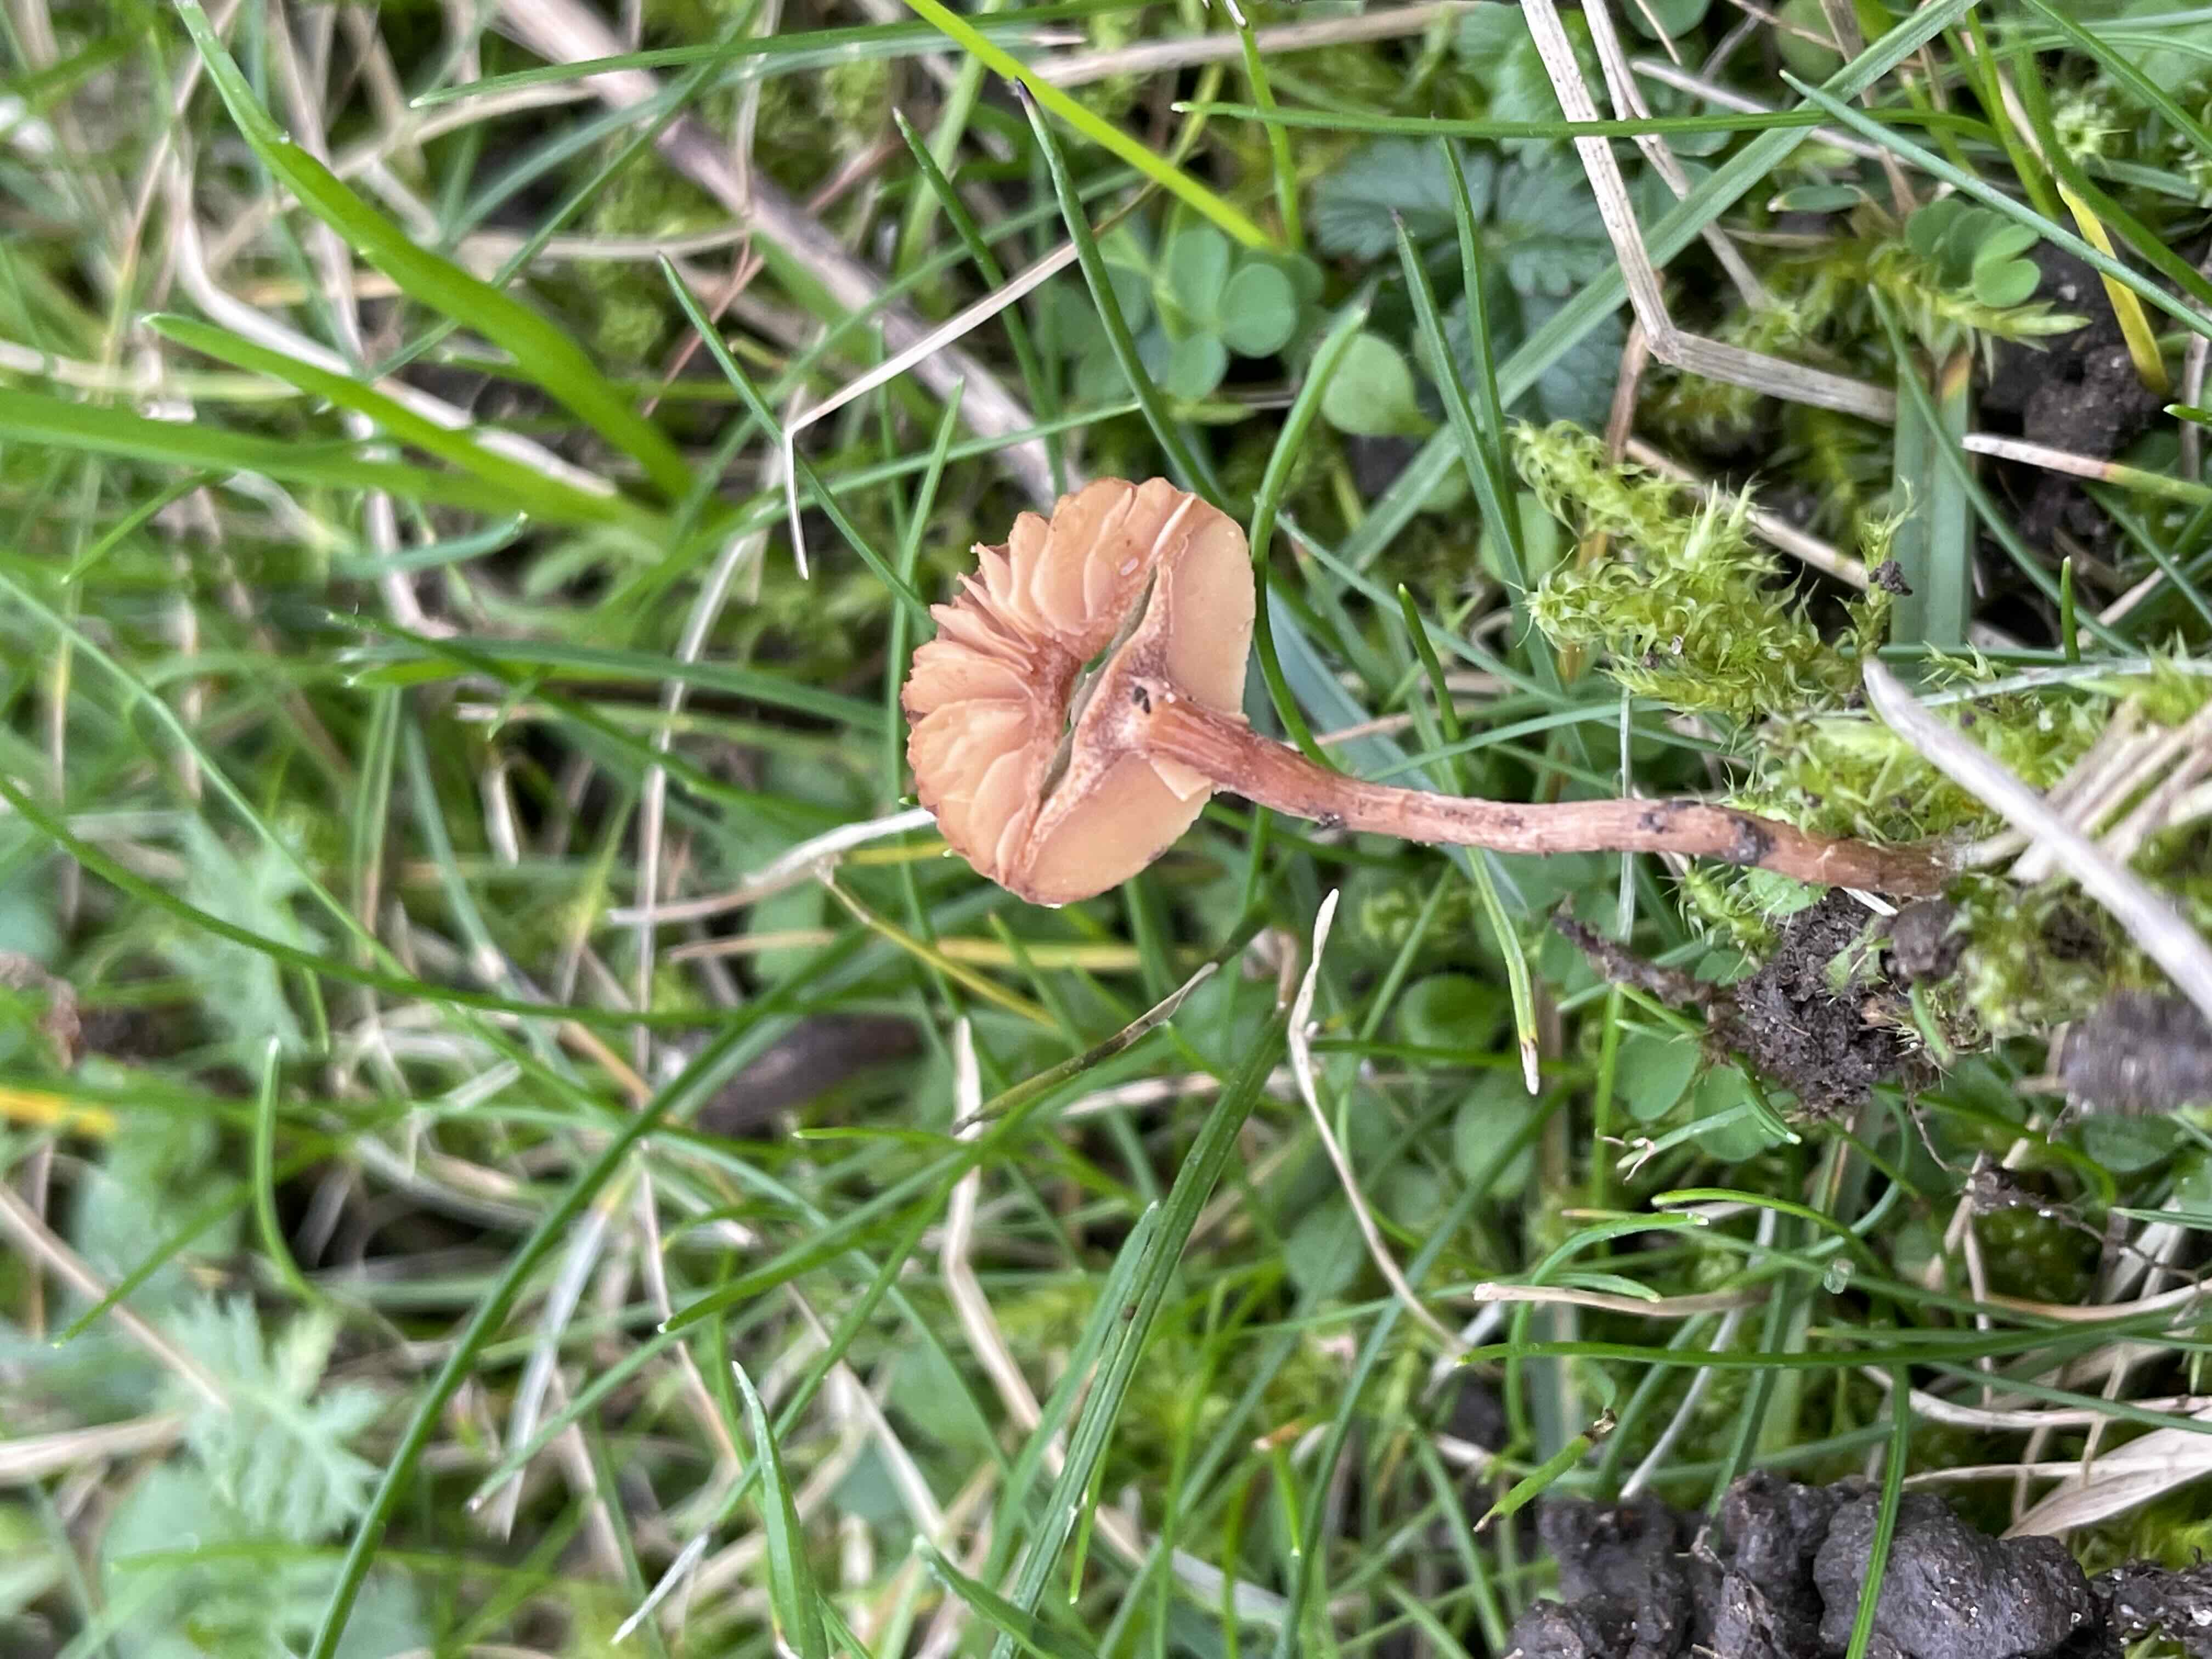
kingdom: Fungi
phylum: Basidiomycota
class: Agaricomycetes
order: Agaricales
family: Tubariaceae
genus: Tubaria
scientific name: Tubaria
